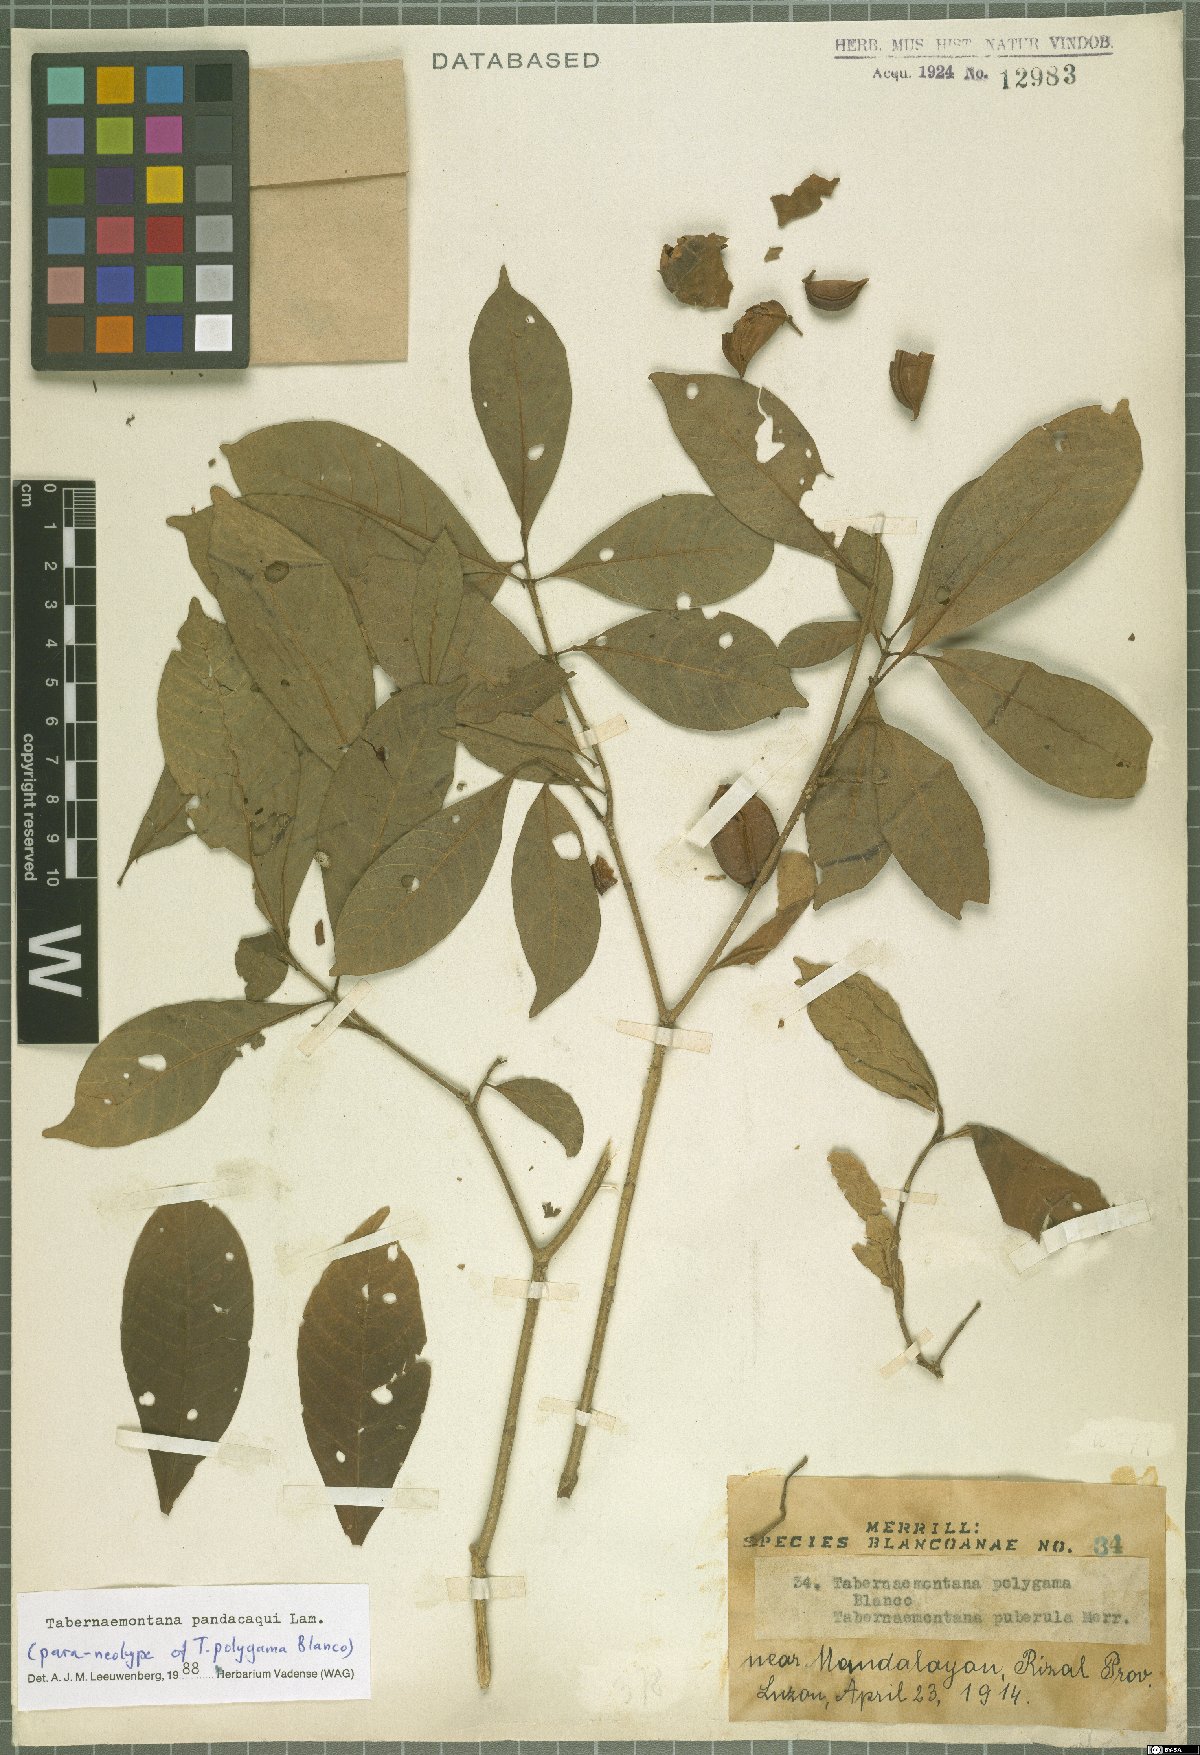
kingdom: Plantae
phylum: Tracheophyta
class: Magnoliopsida
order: Gentianales
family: Apocynaceae
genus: Tabernaemontana
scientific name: Tabernaemontana pandacaqui
